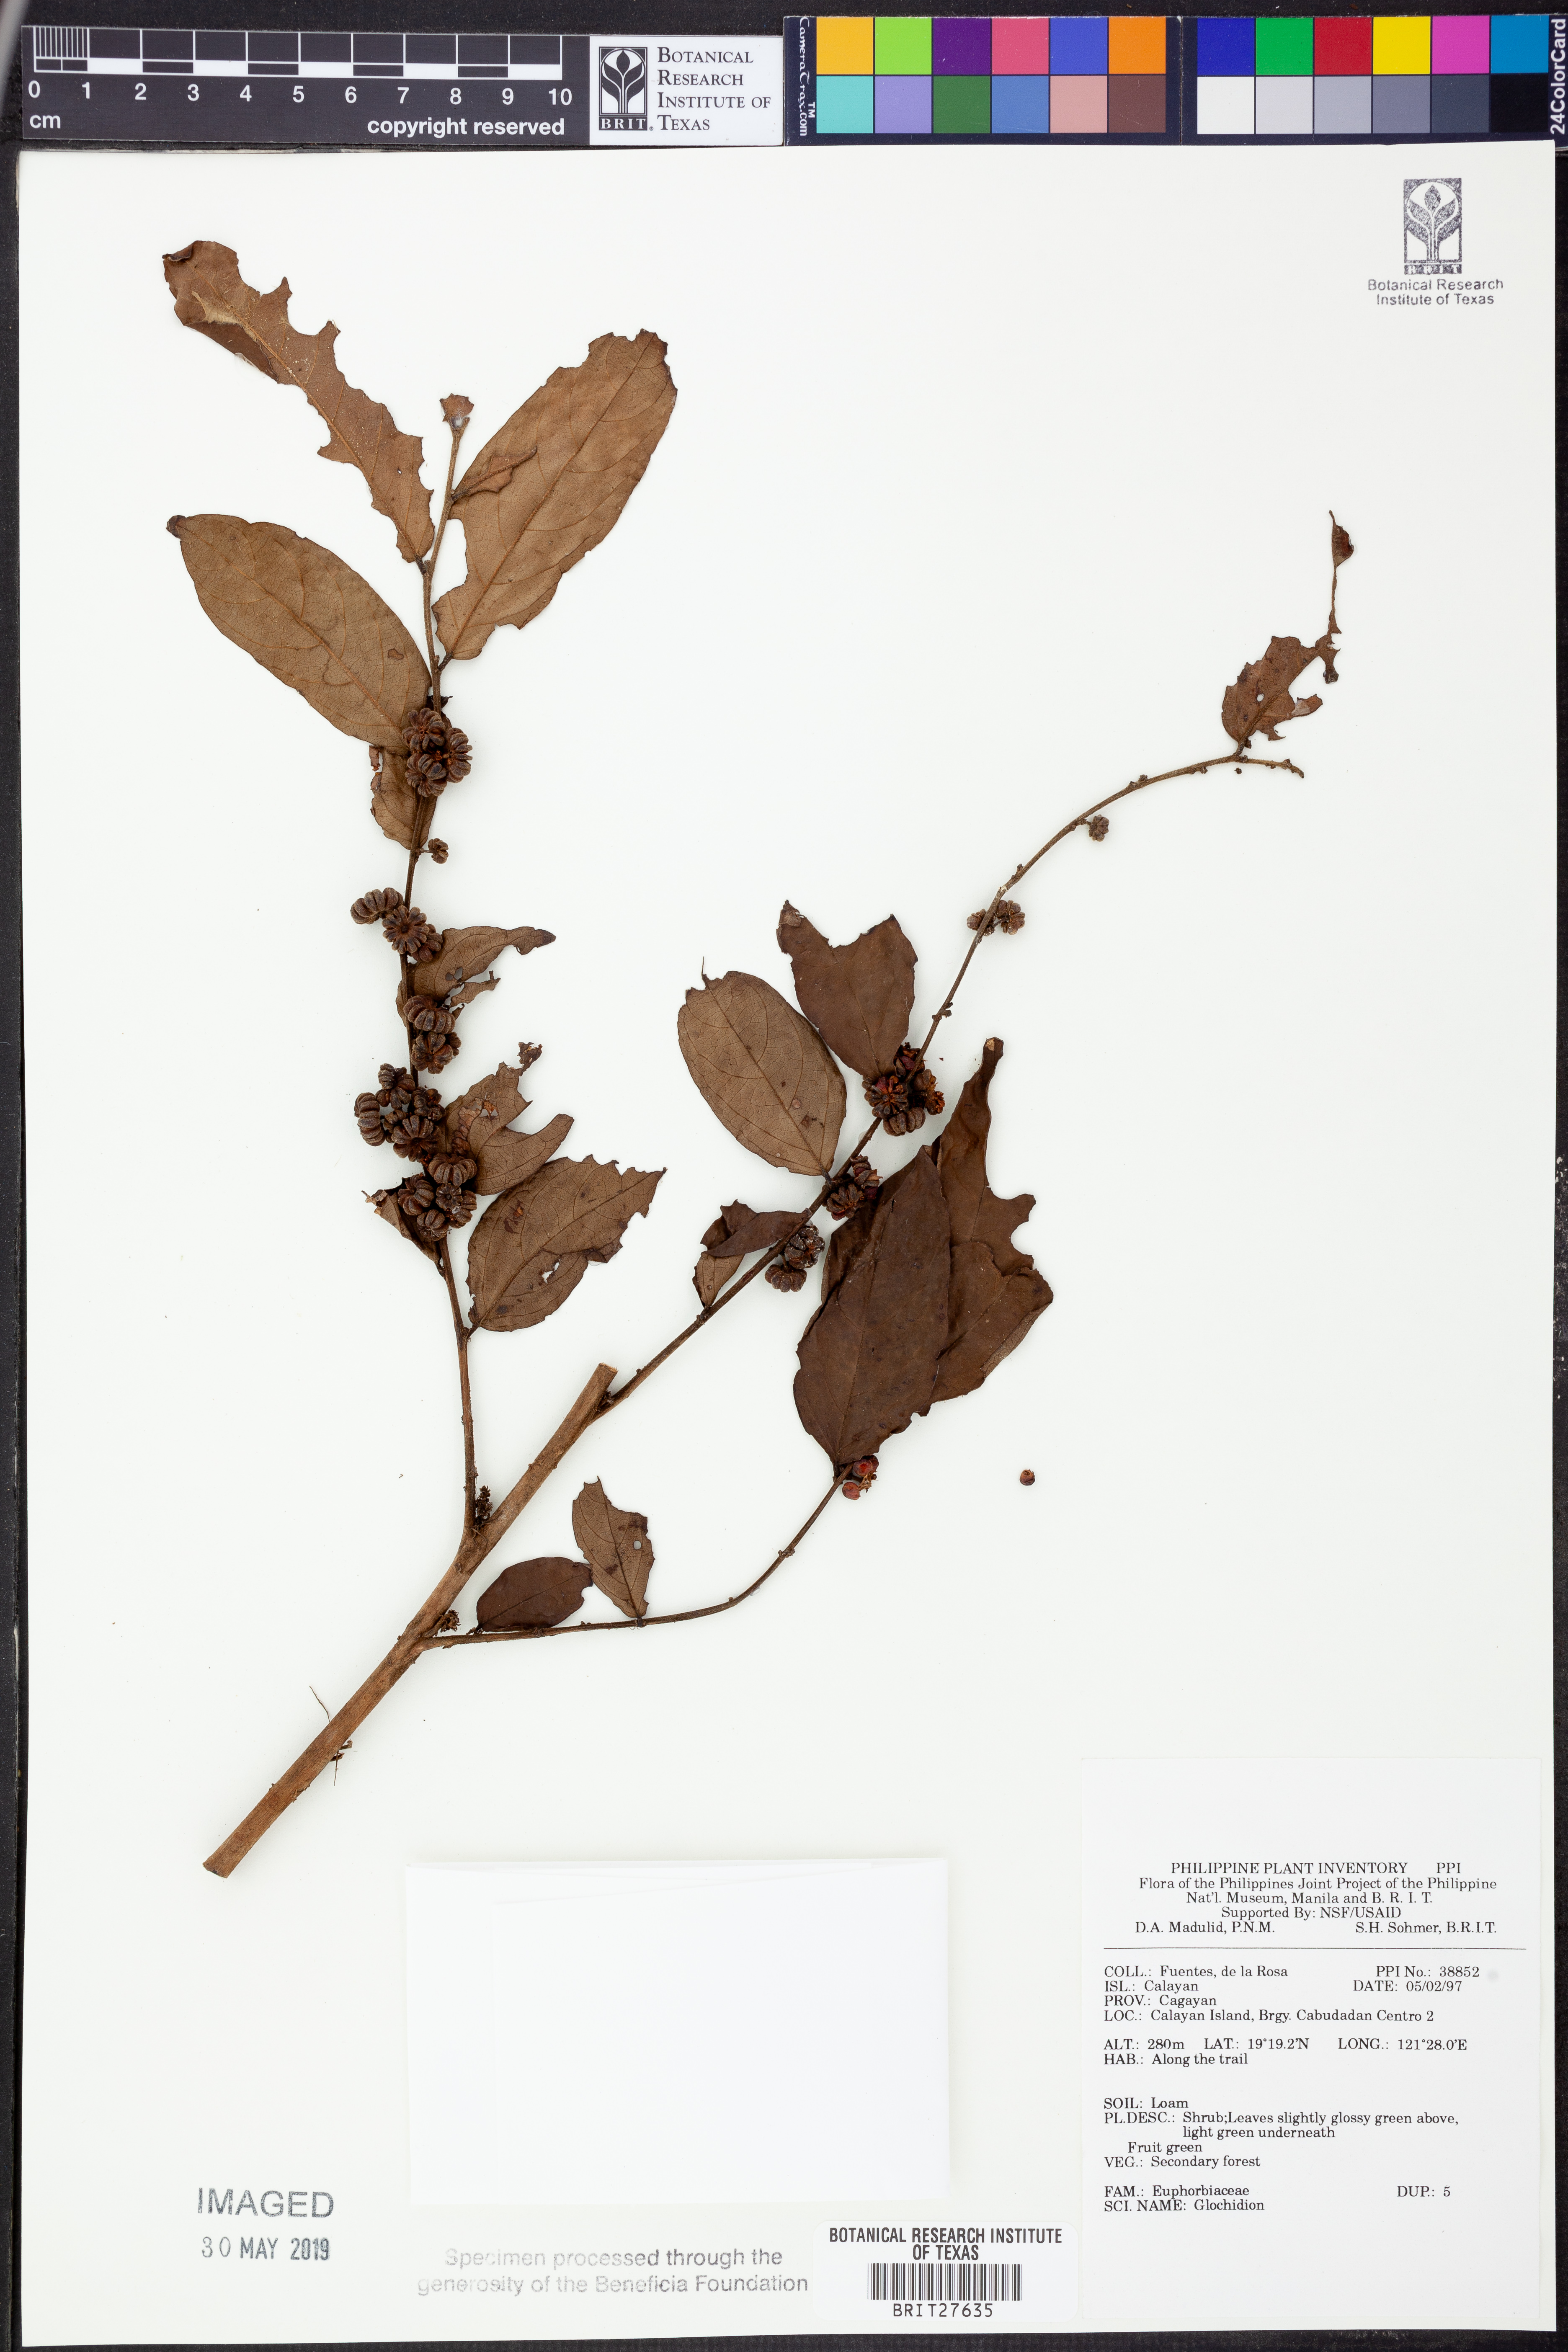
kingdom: Plantae
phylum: Tracheophyta
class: Magnoliopsida
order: Malpighiales
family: Phyllanthaceae
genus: Glochidion
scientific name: Glochidion
